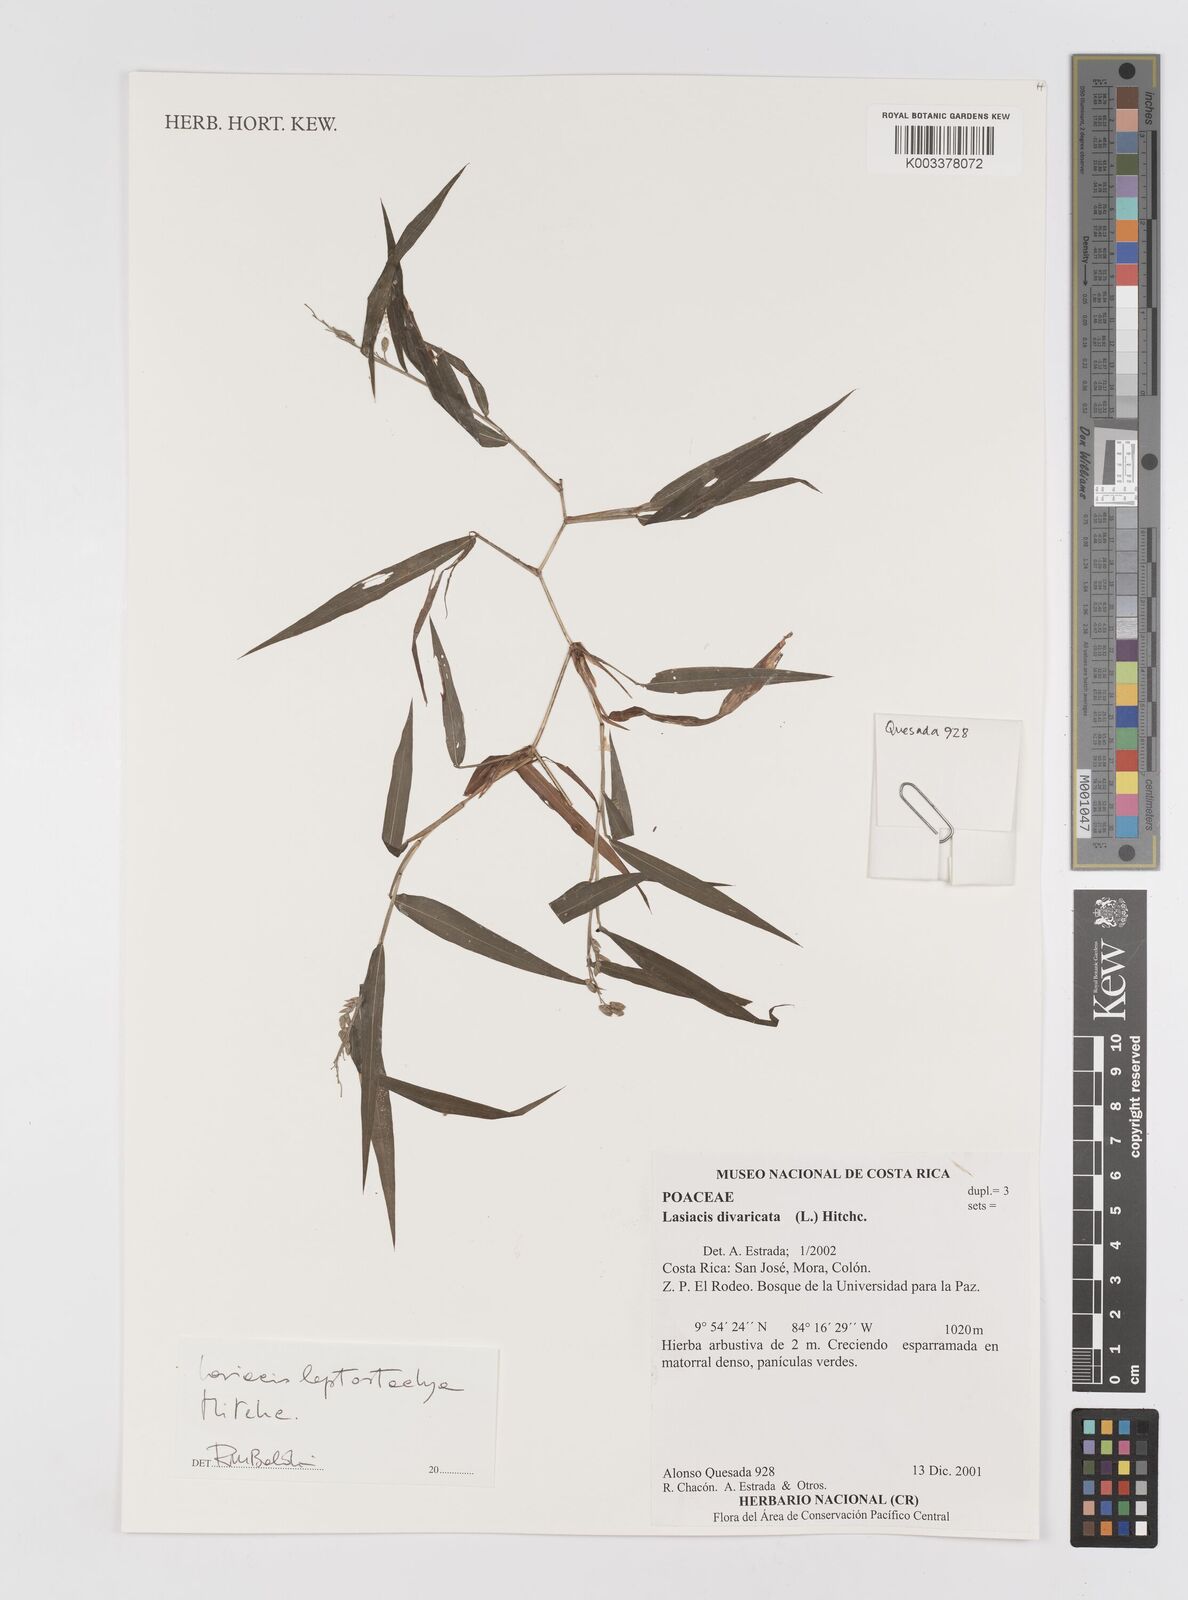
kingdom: Plantae
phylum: Tracheophyta
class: Liliopsida
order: Poales
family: Poaceae
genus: Lasiacis
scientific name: Lasiacis divaricata
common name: Smallcane
